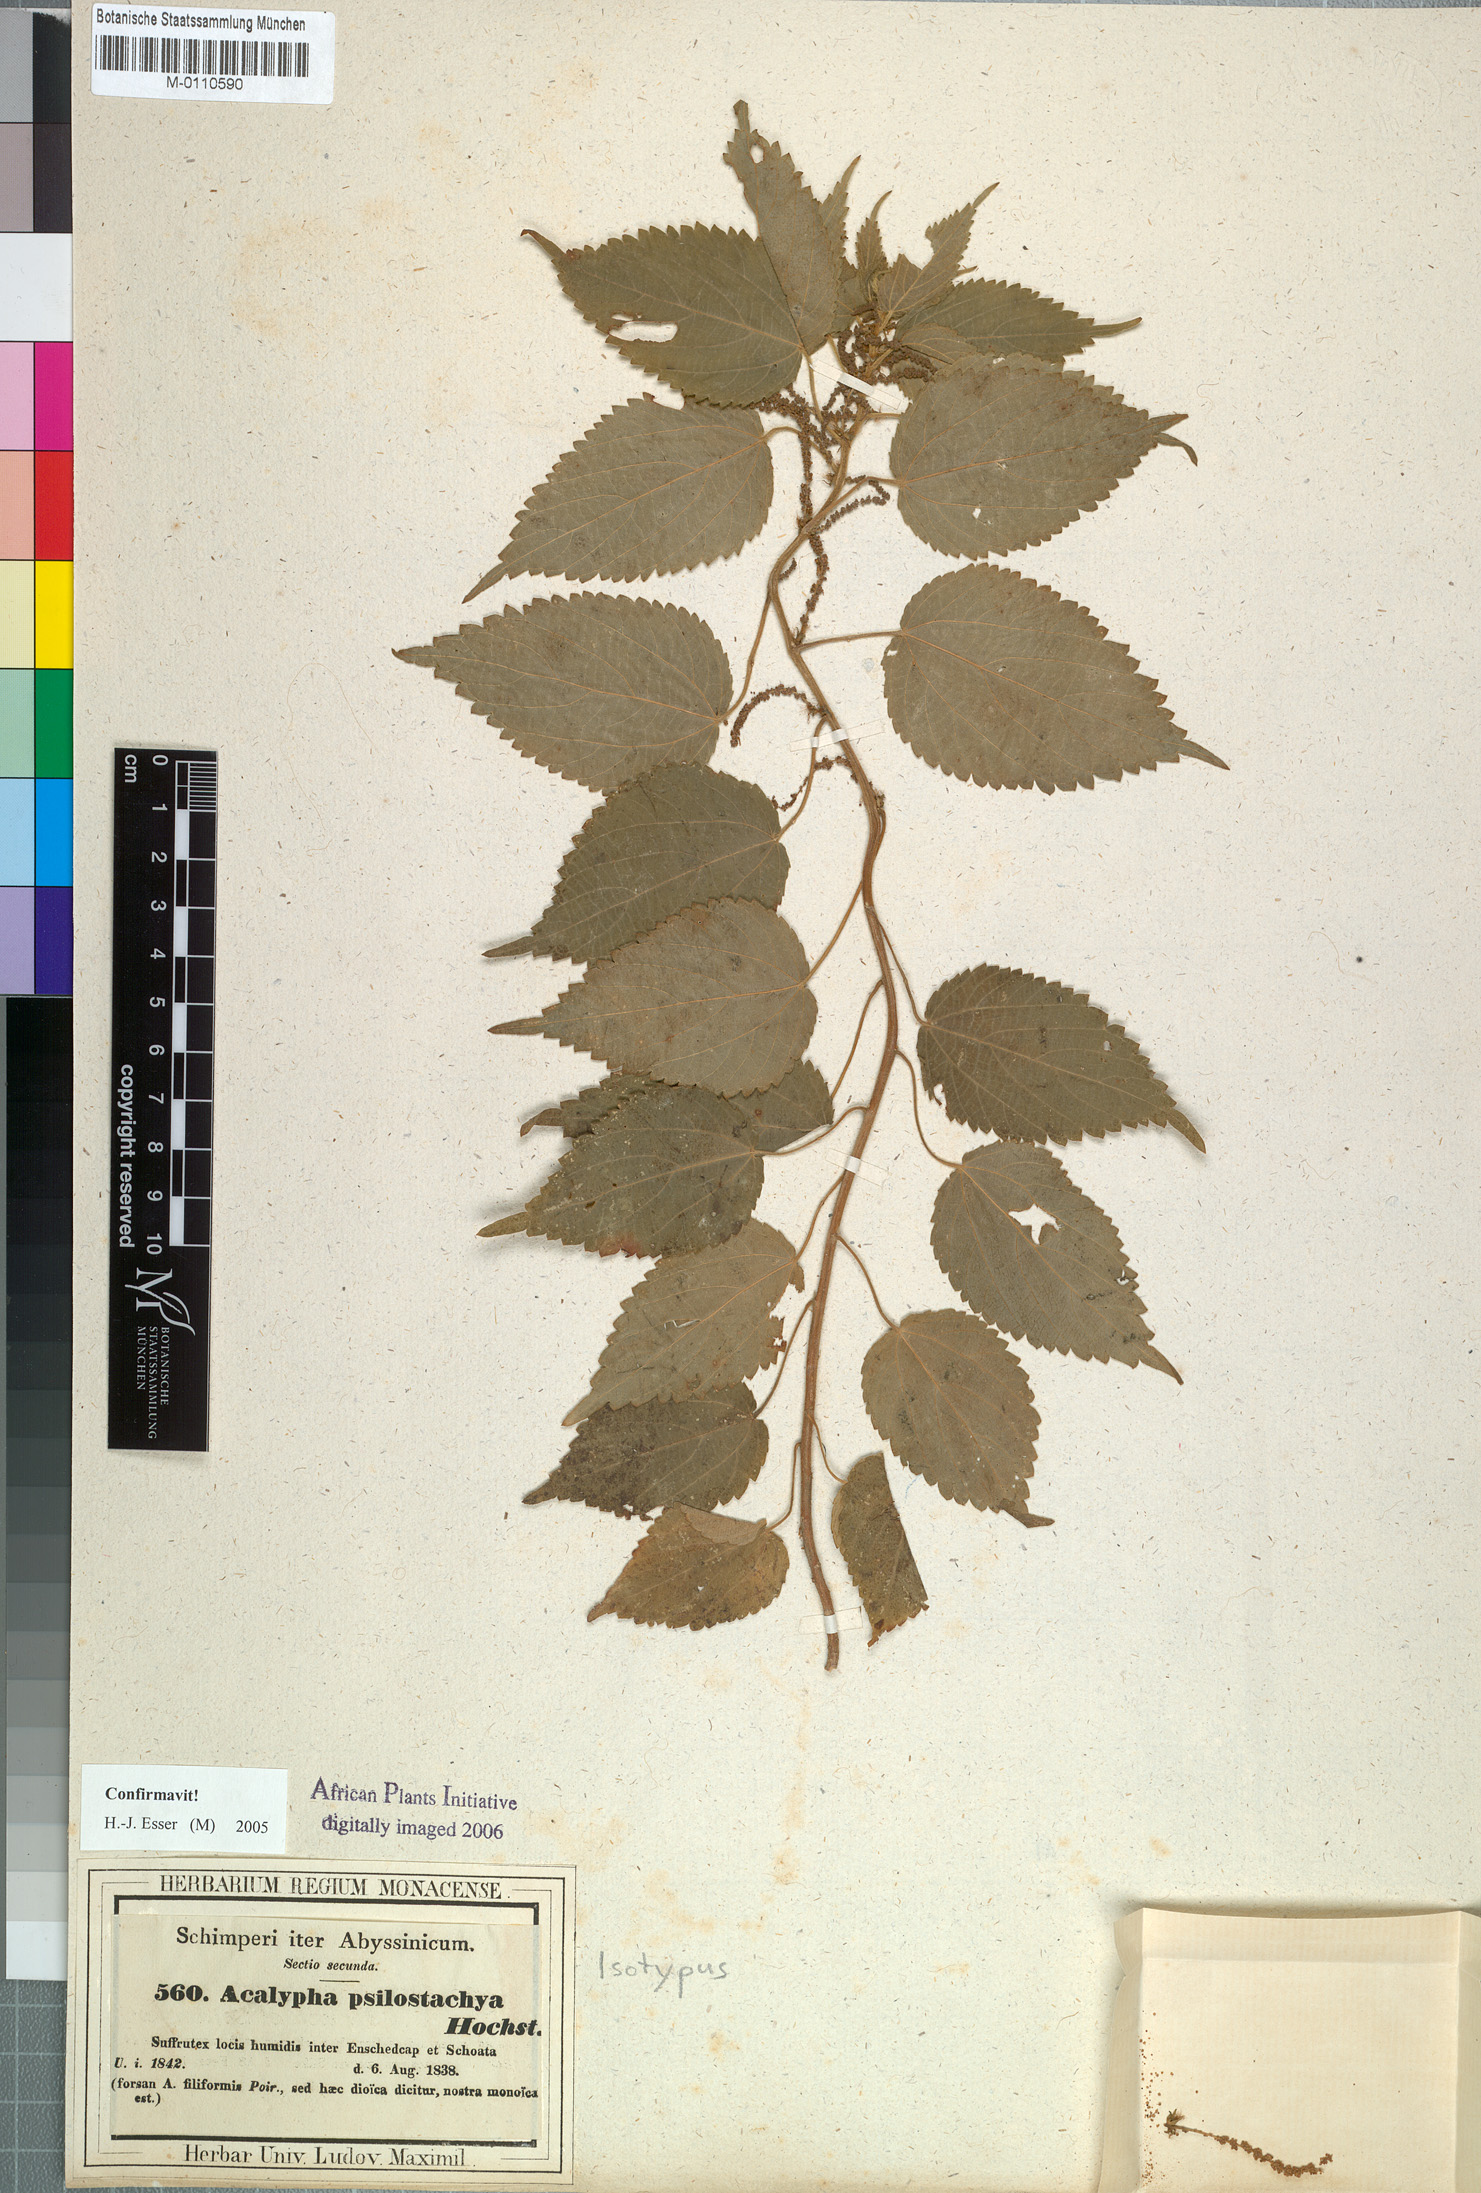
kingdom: Plantae
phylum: Tracheophyta
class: Magnoliopsida
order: Malpighiales
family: Euphorbiaceae
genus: Acalypha
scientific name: Acalypha psilostachya
